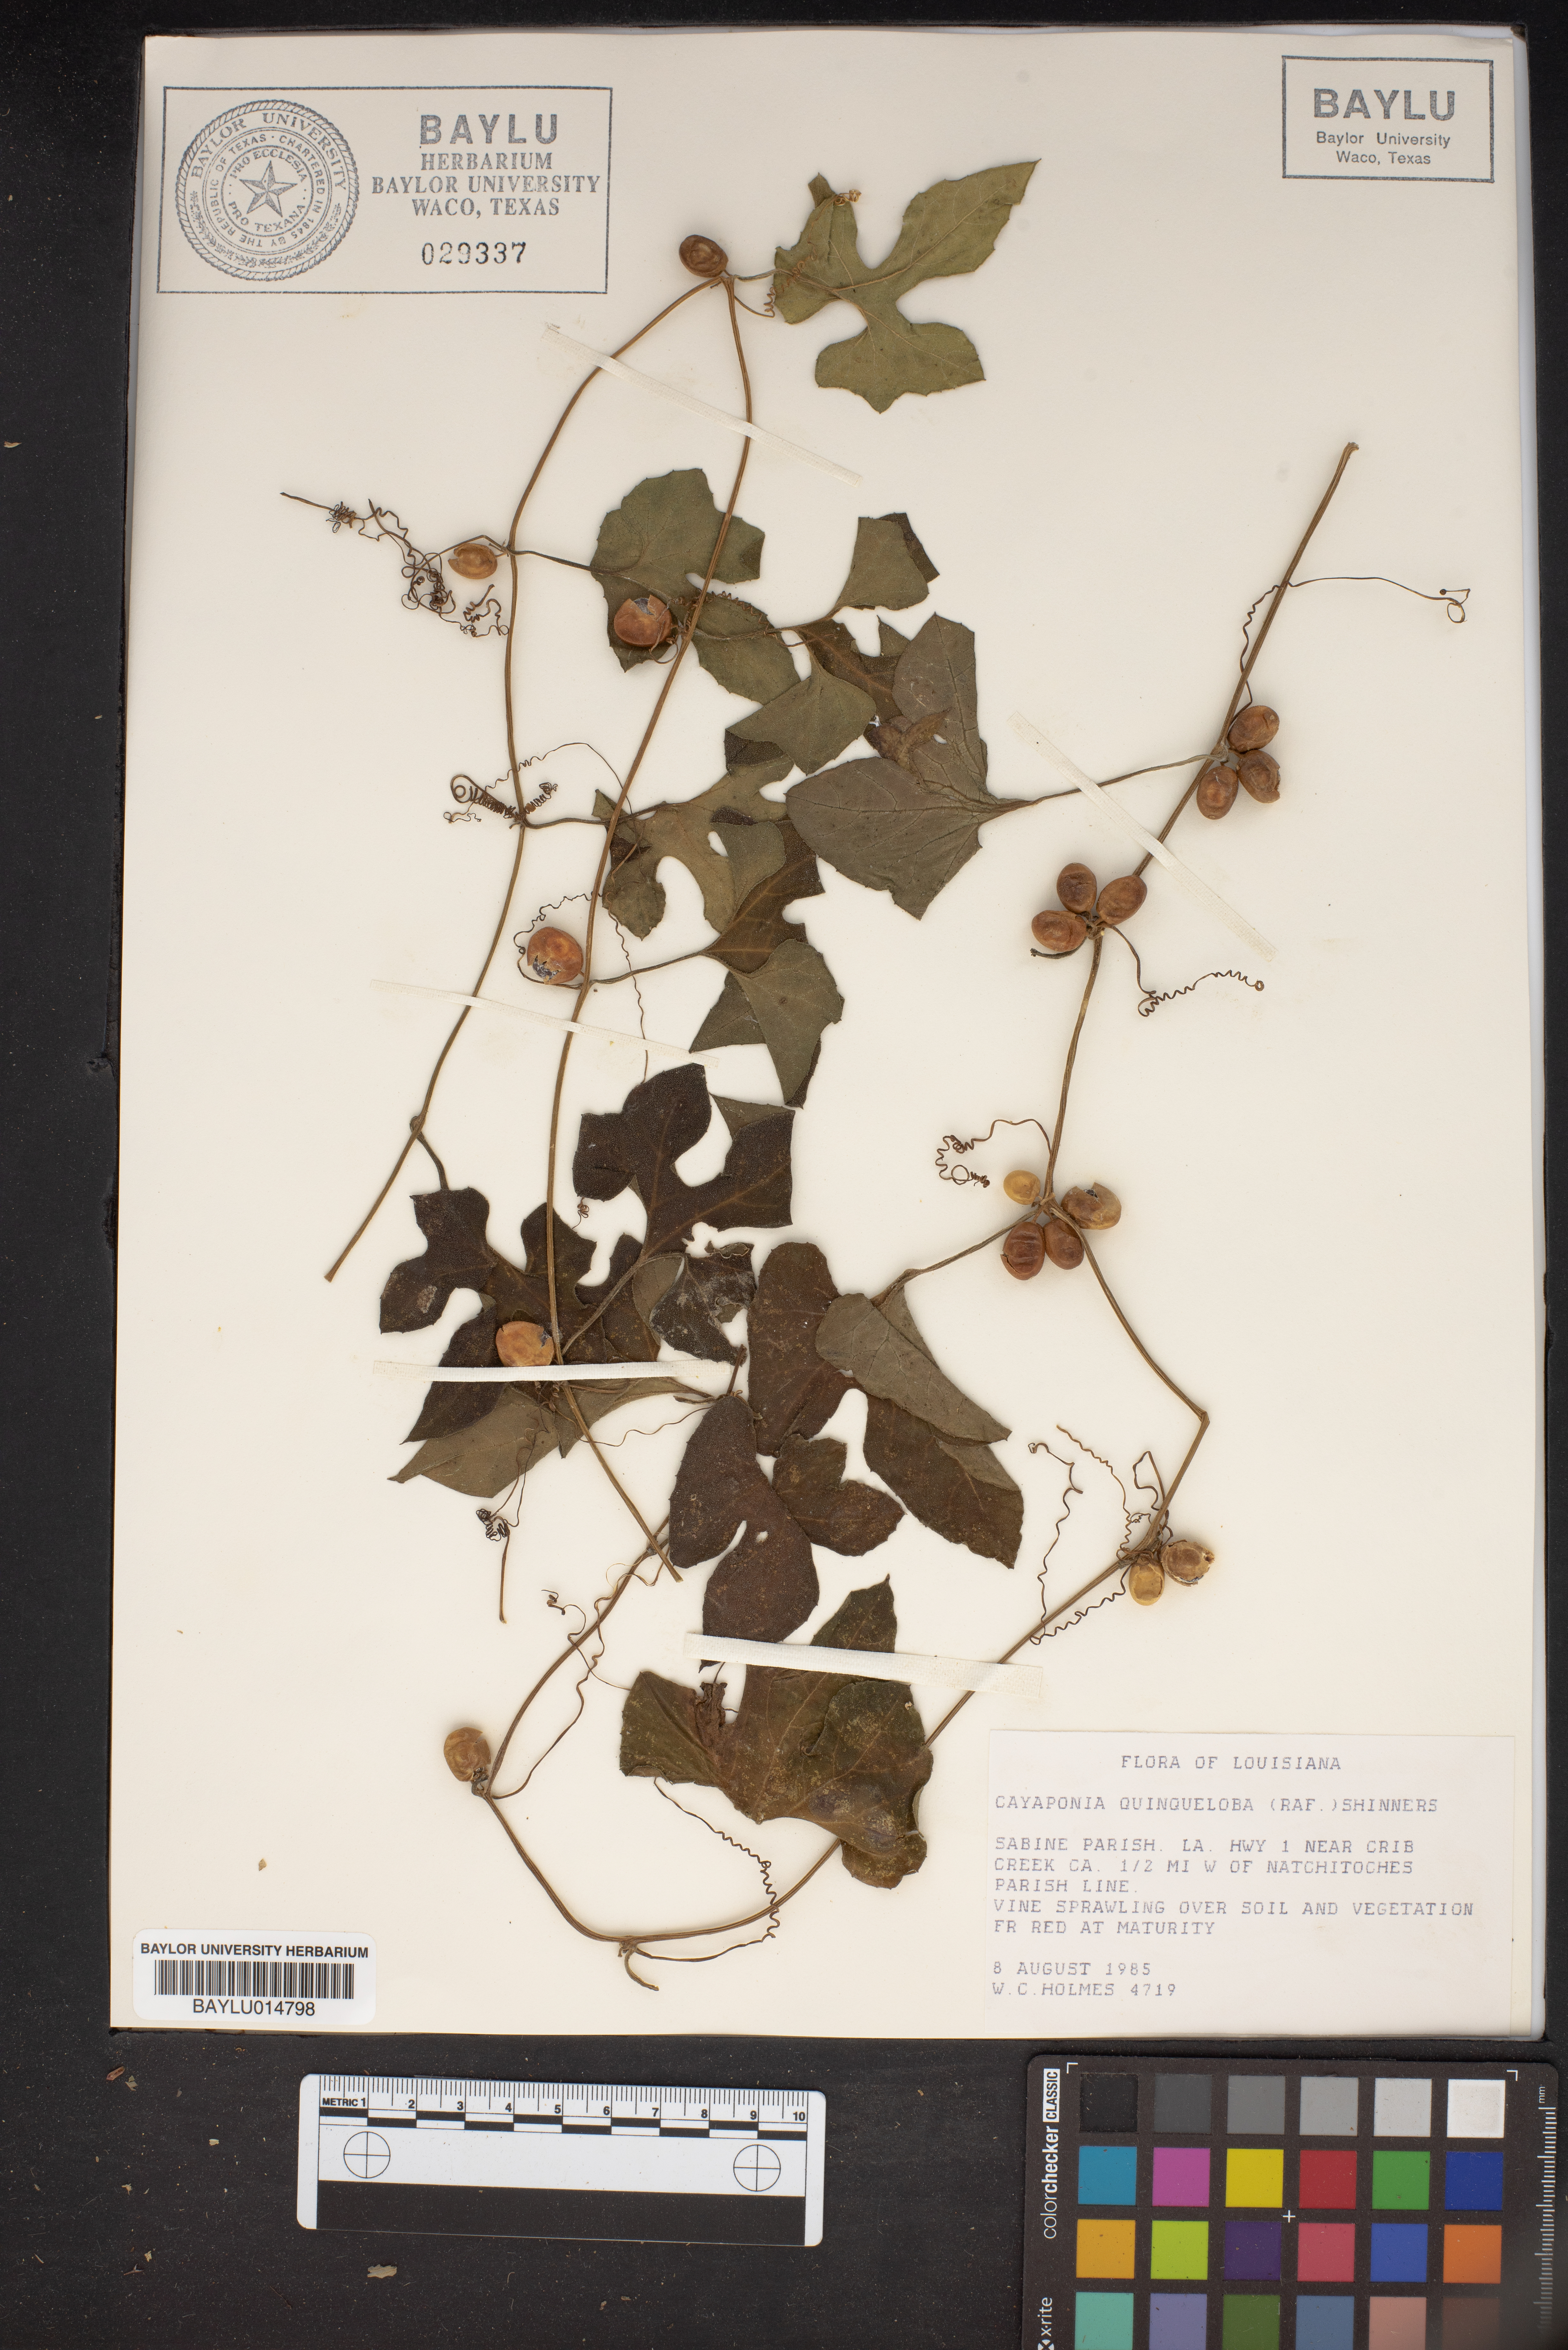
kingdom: Plantae
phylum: Tracheophyta
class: Magnoliopsida
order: Cucurbitales
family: Cucurbitaceae
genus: Cayaponia
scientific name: Cayaponia quinqueloba
